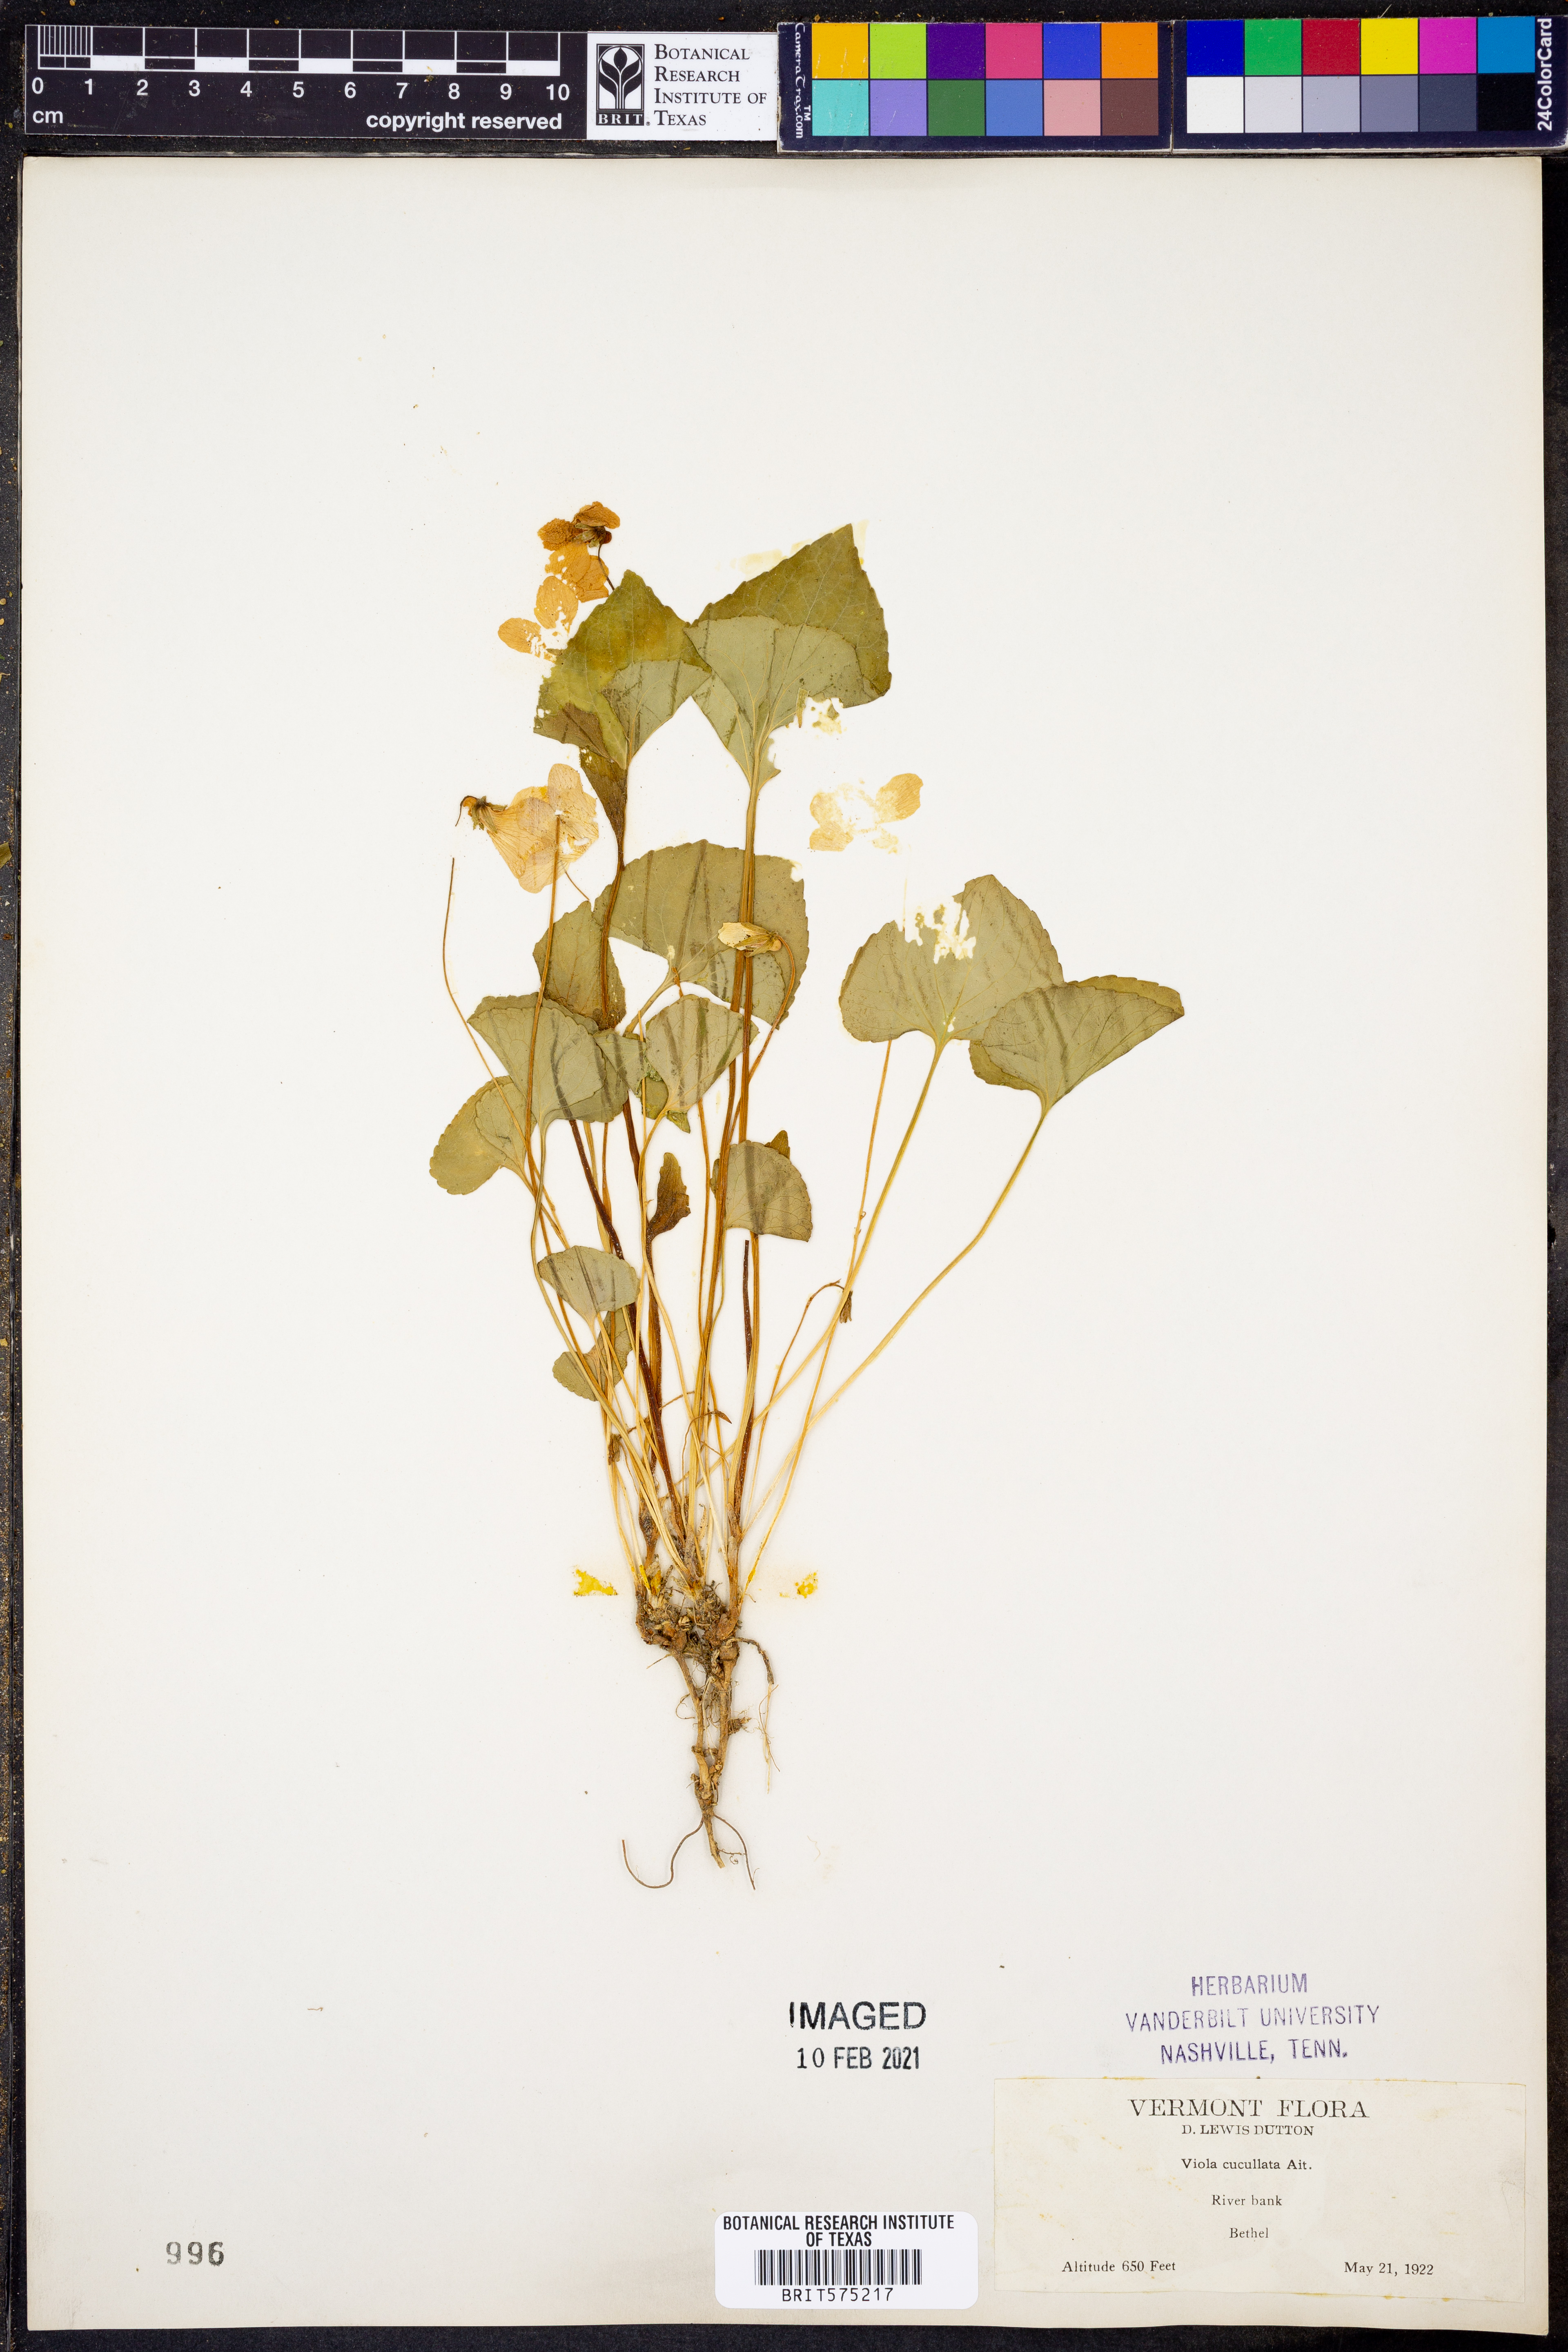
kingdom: Plantae
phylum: Tracheophyta
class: Magnoliopsida
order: Malpighiales
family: Violaceae
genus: Viola
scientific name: Viola cucullata
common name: Marsh blue violet
